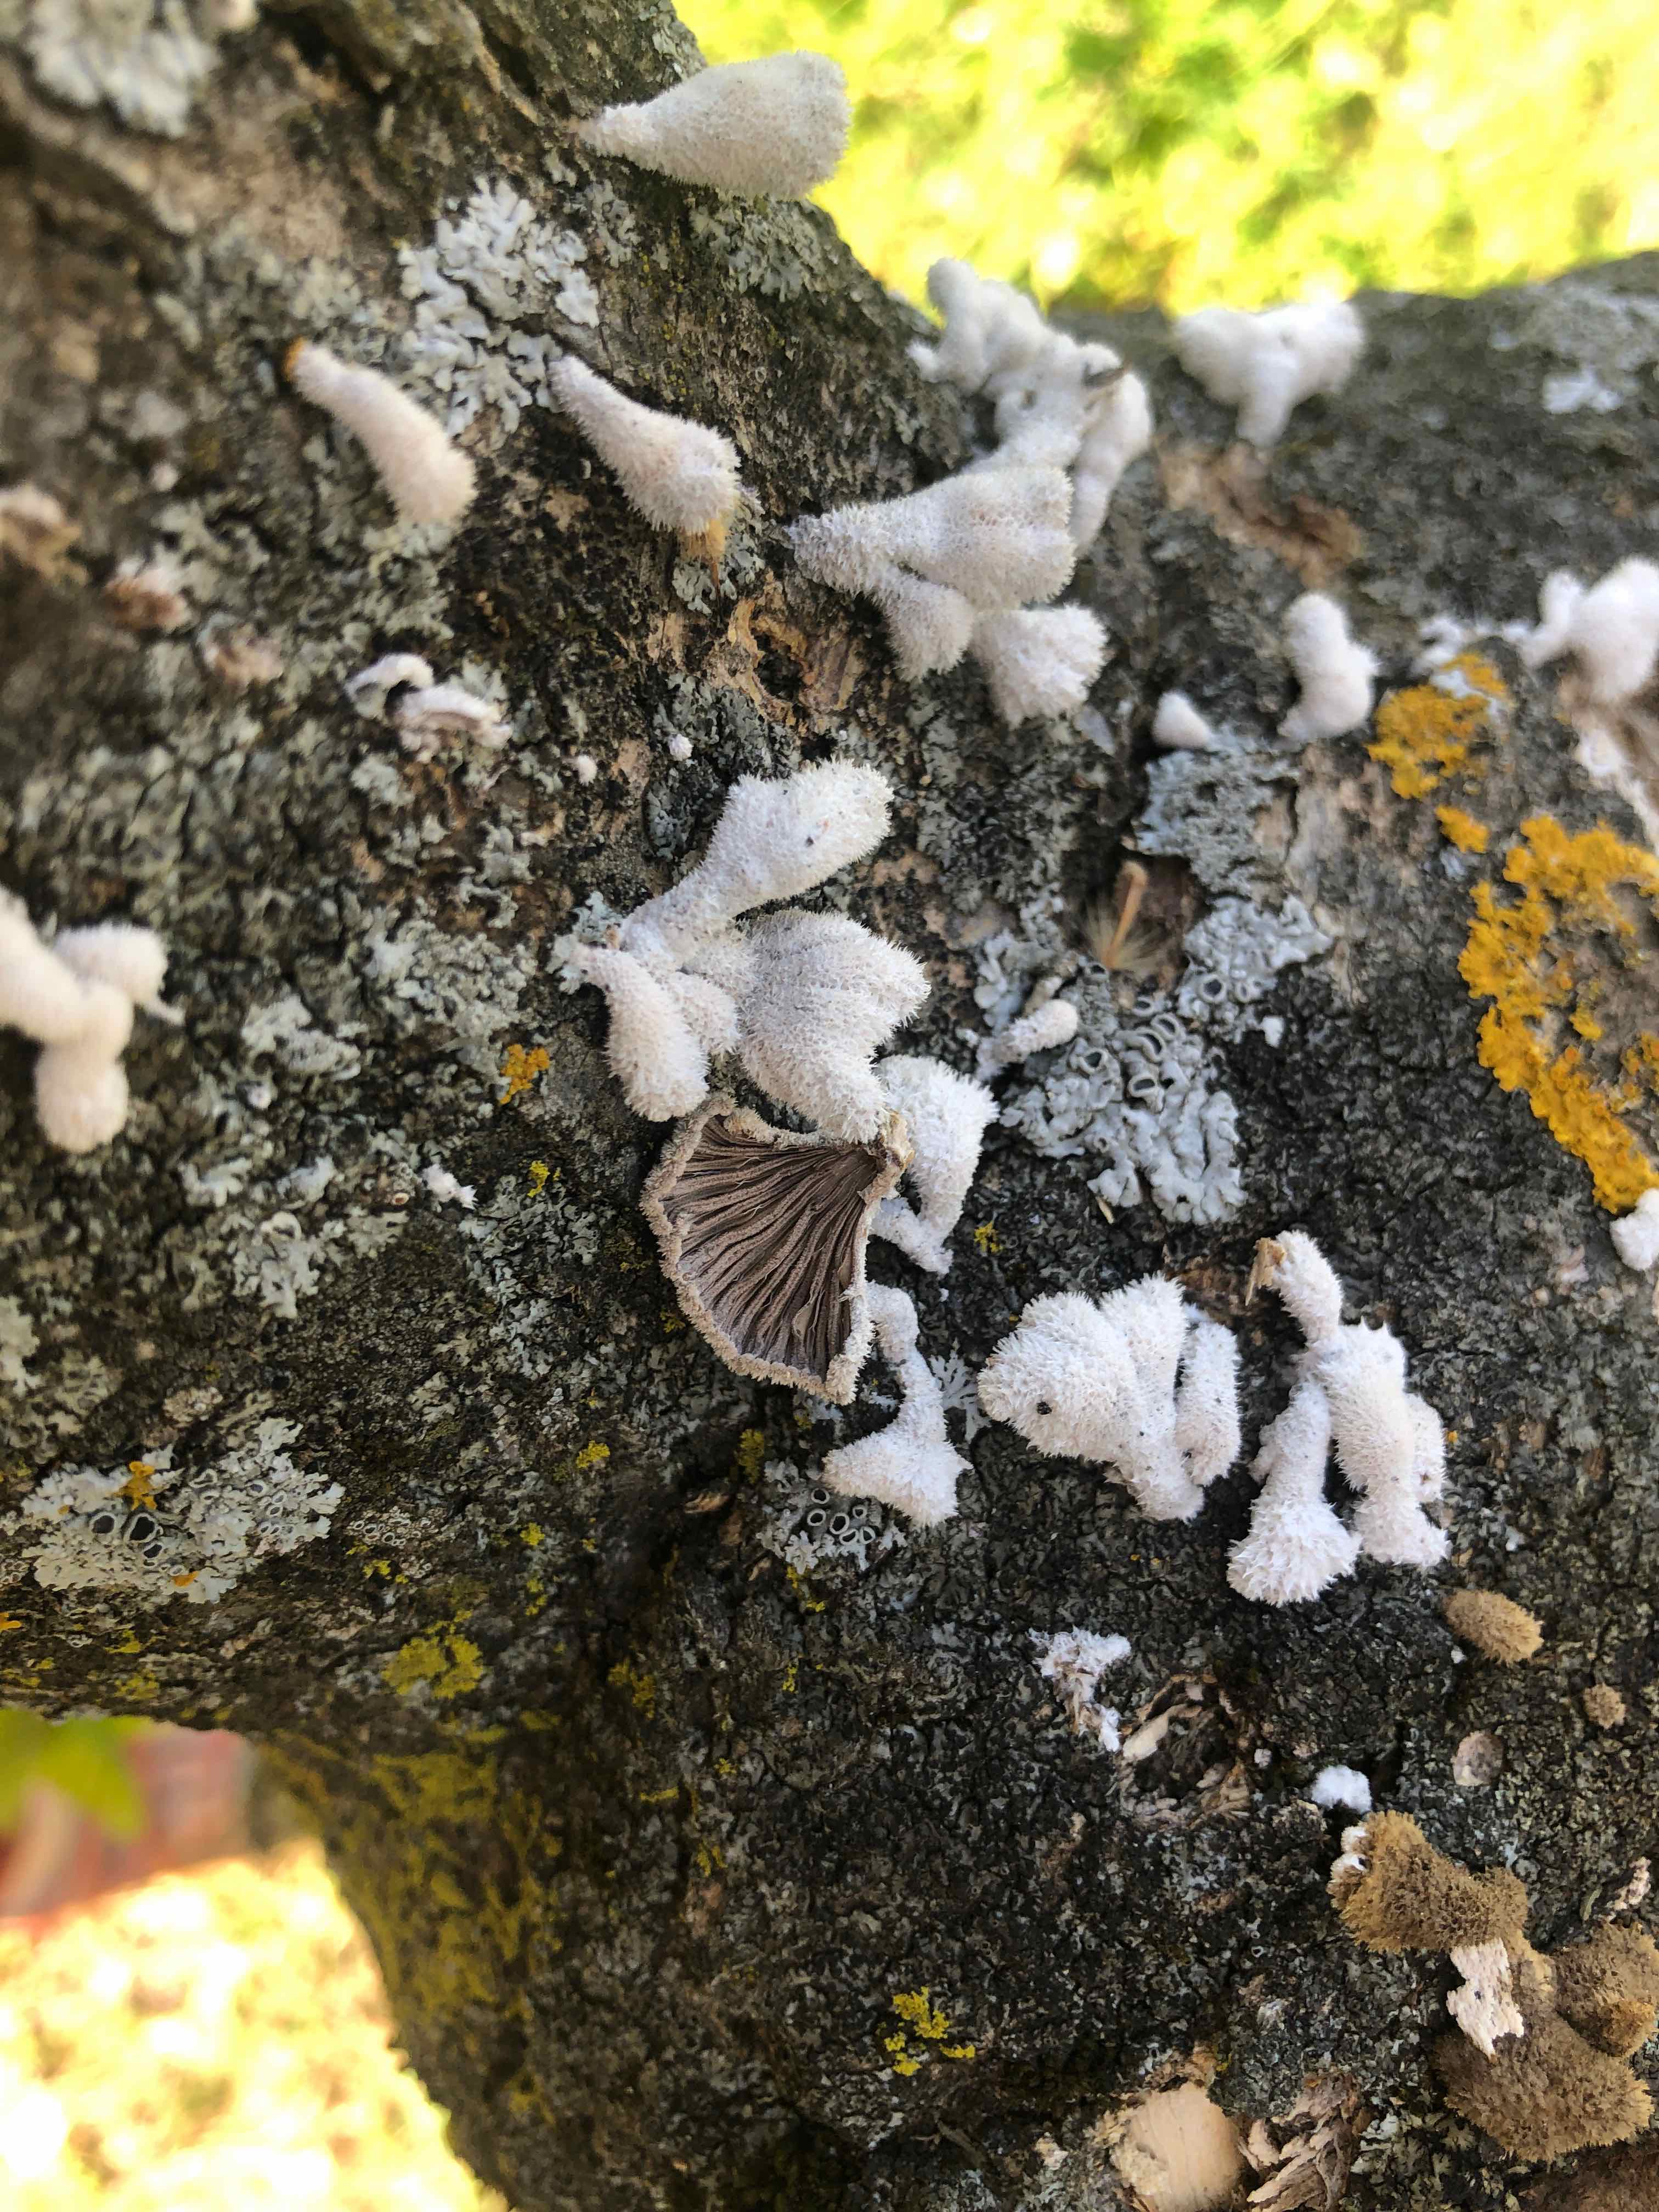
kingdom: Fungi
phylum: Basidiomycota
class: Agaricomycetes
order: Agaricales
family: Schizophyllaceae
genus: Schizophyllum
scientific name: Schizophyllum commune
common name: kløvblad
